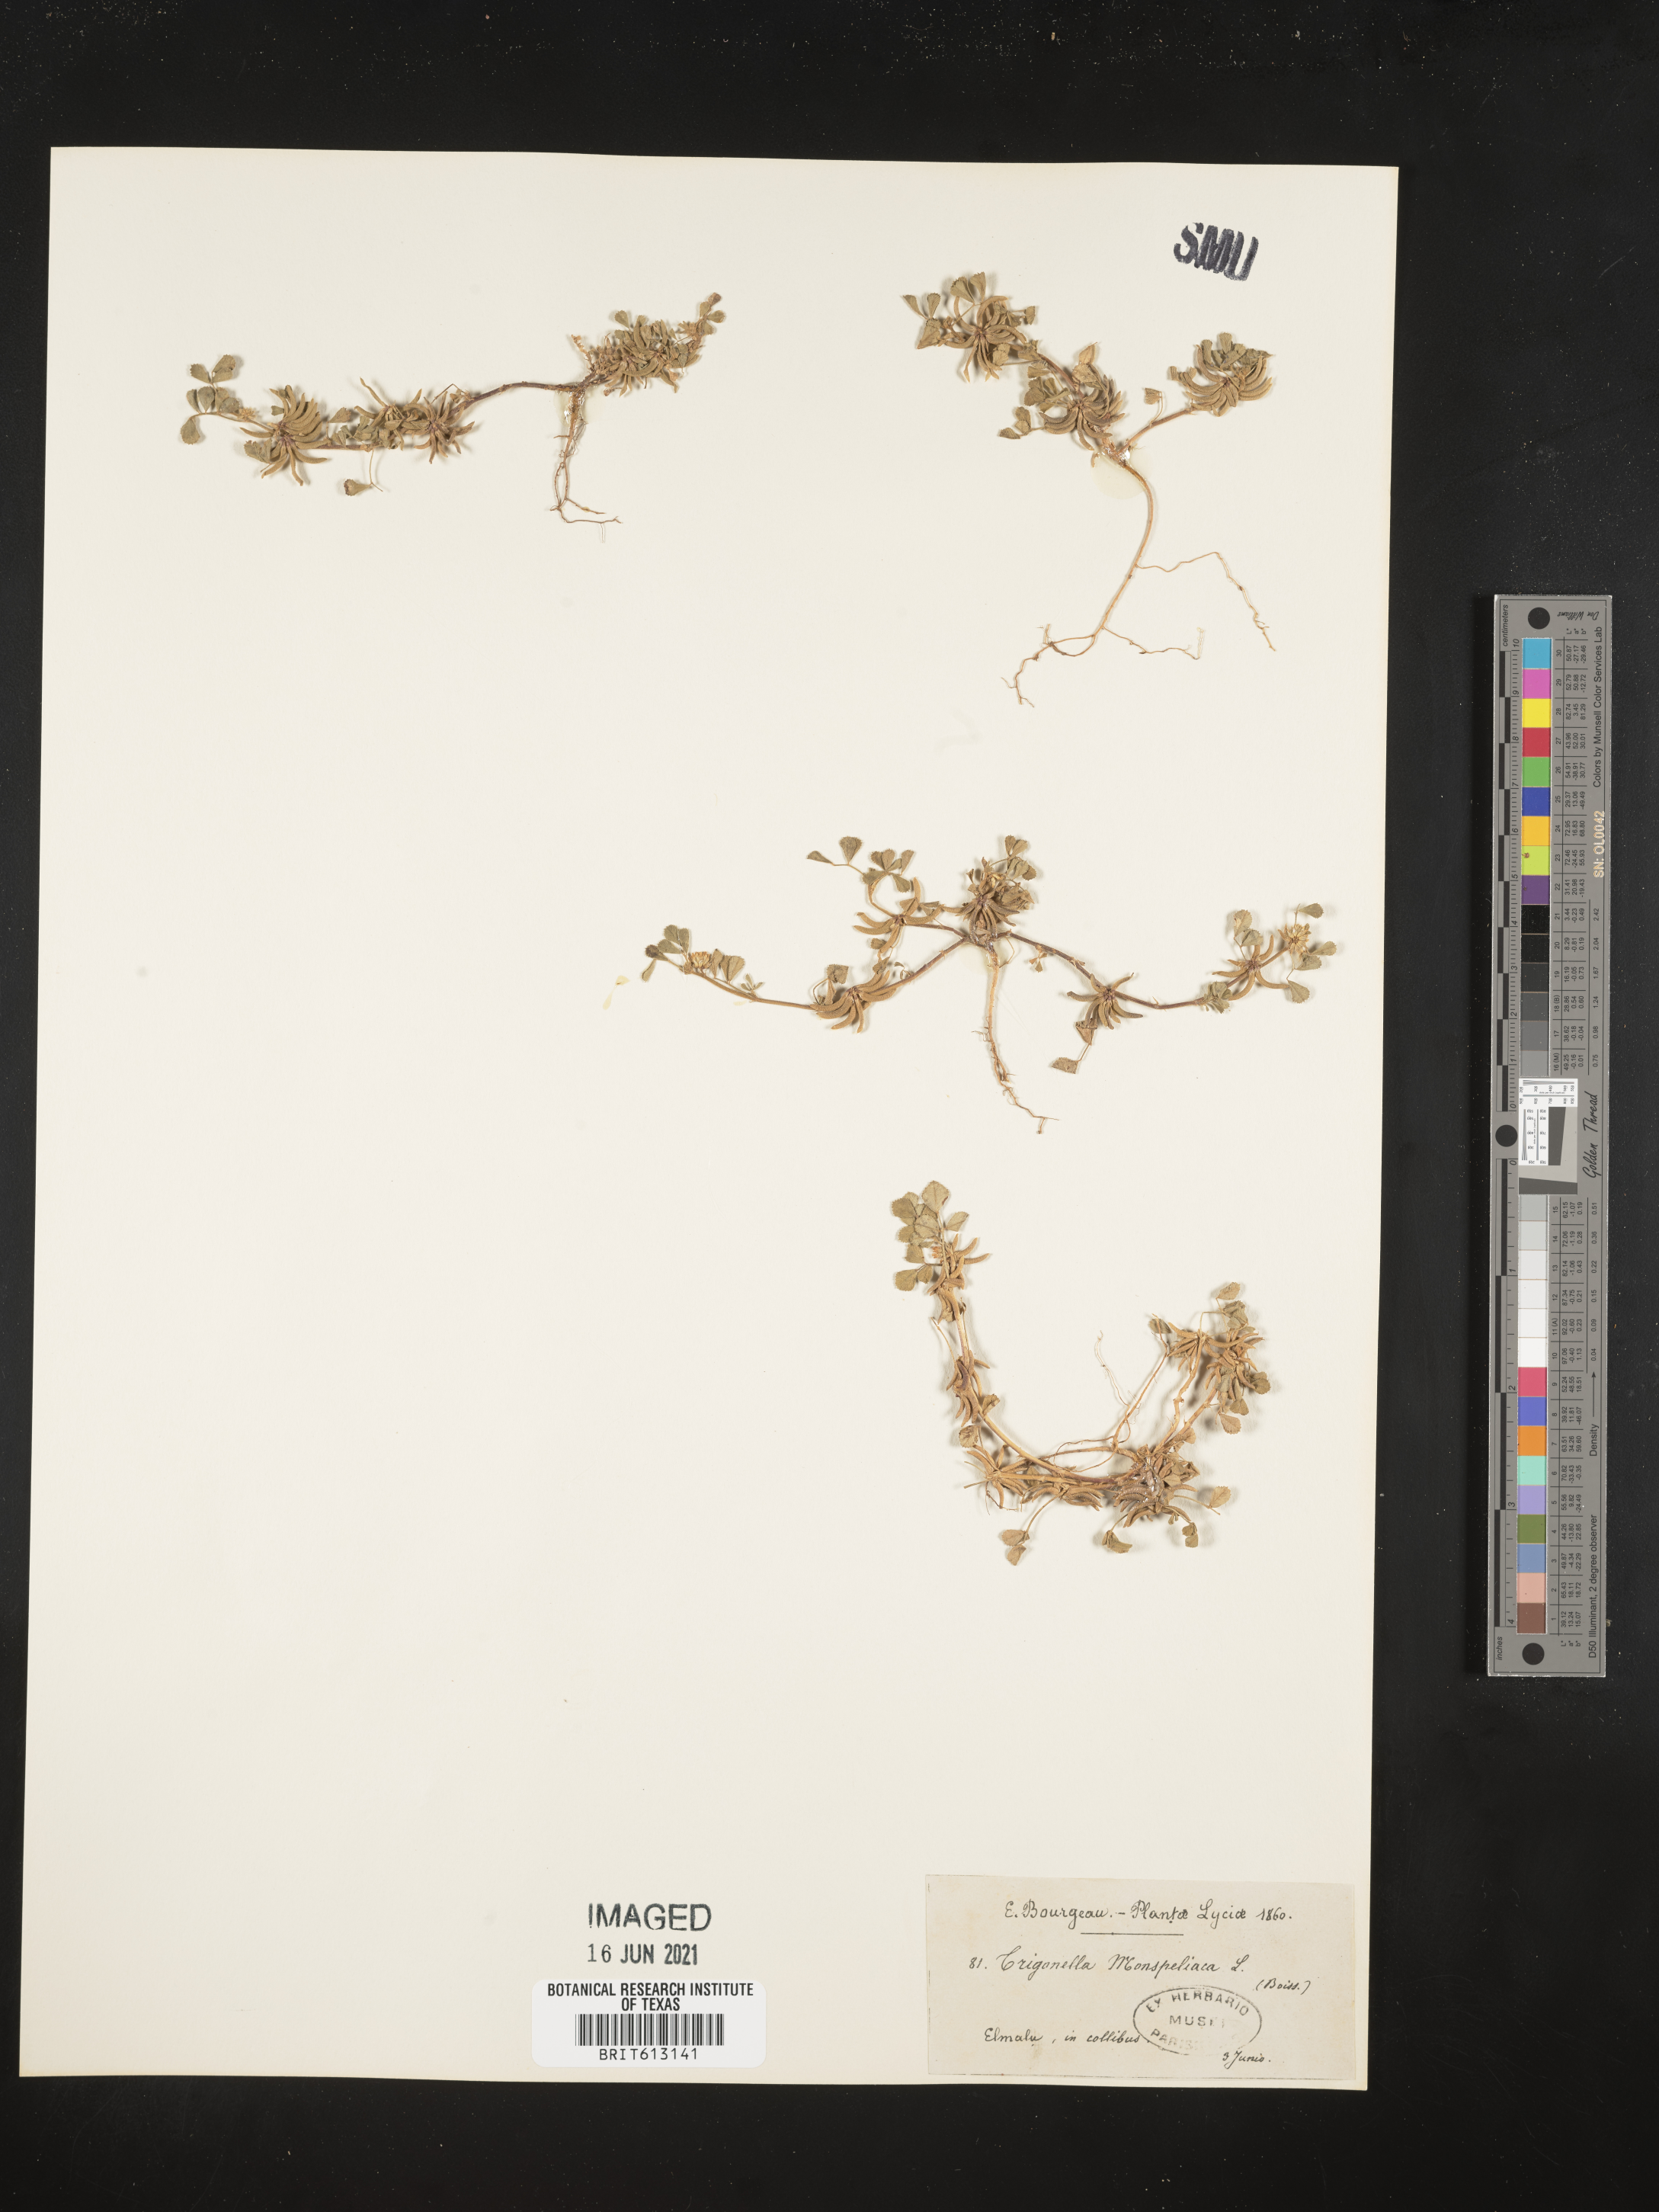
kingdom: Plantae
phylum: Tracheophyta
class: Magnoliopsida
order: Fabales
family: Fabaceae
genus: Medicago
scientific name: Medicago monspeliaca
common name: Hairy medick
